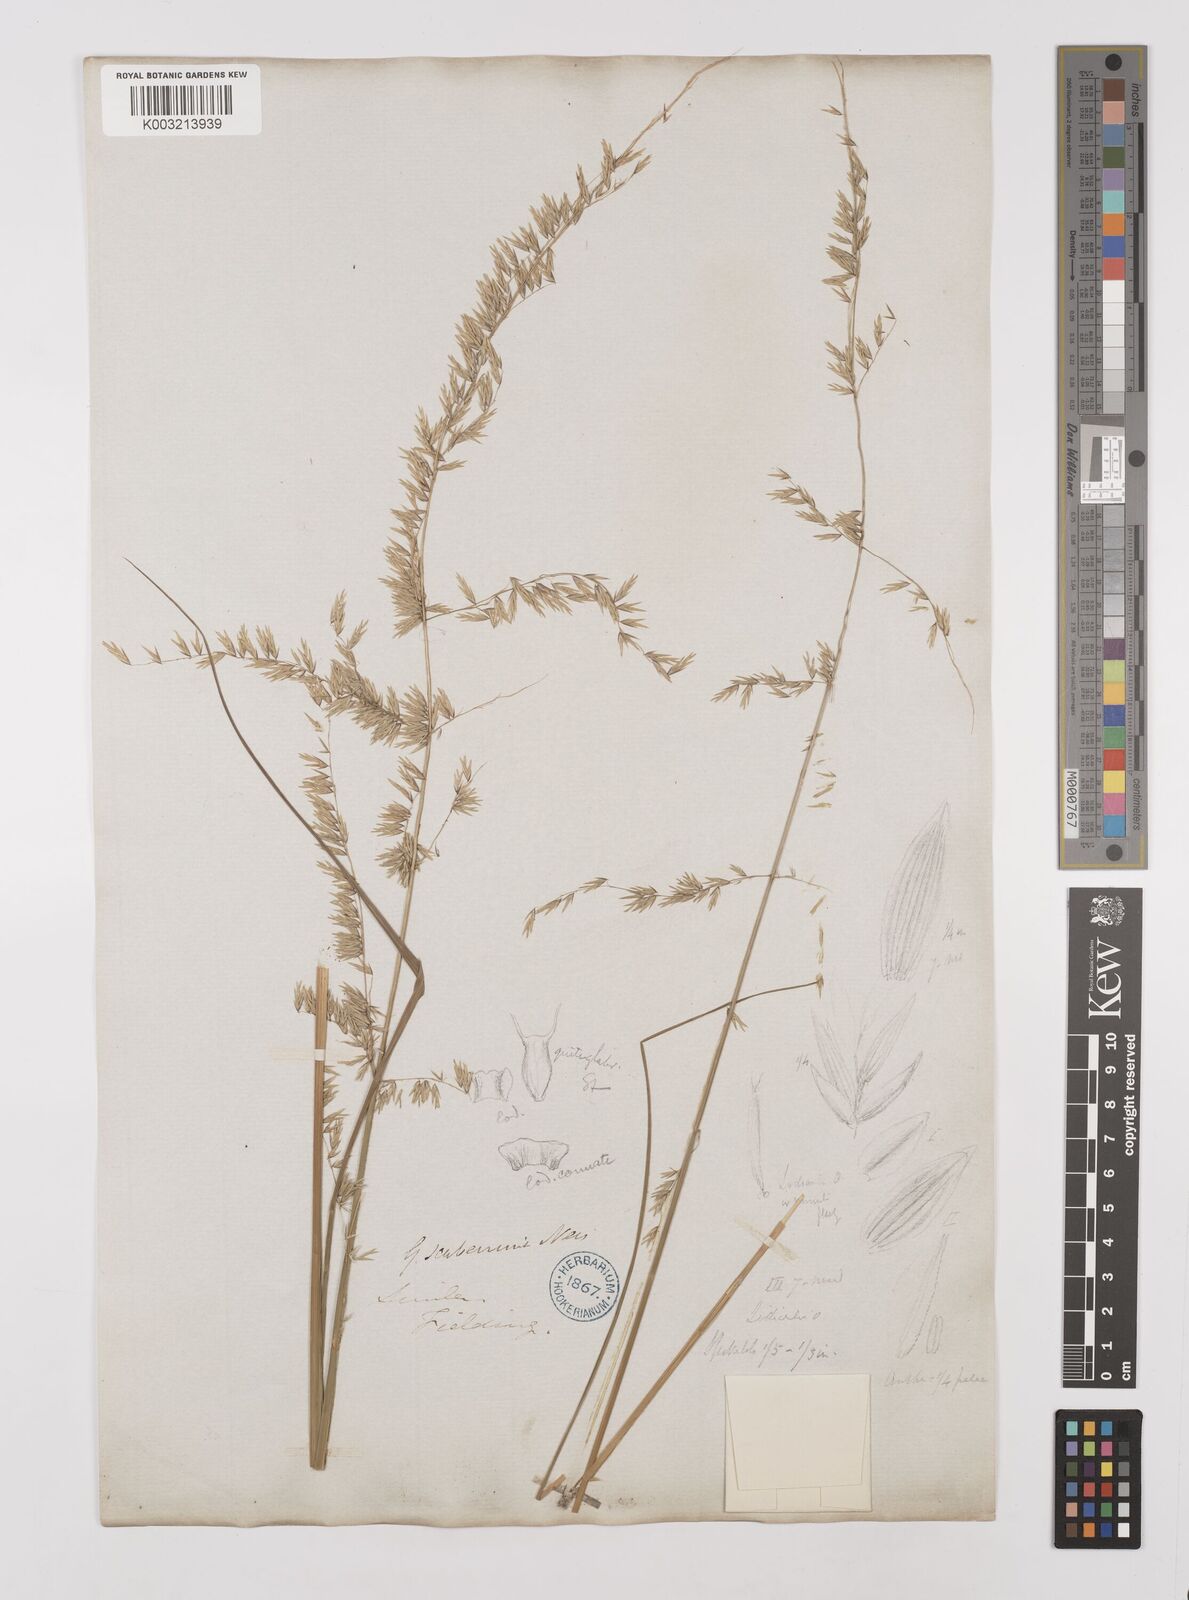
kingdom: Plantae
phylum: Tracheophyta
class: Liliopsida
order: Poales
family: Poaceae
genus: Melica
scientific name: Melica scaberrima
